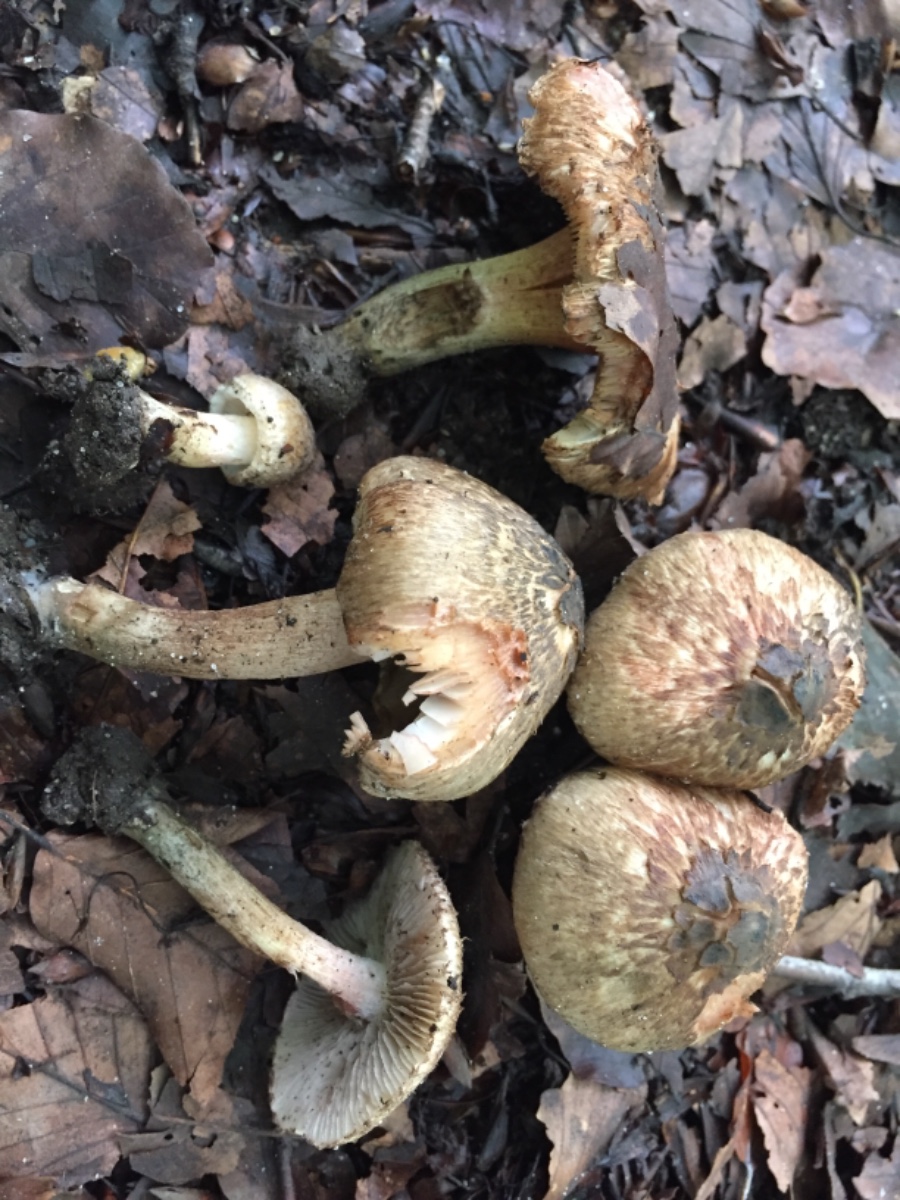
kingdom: Fungi
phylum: Basidiomycota
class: Agaricomycetes
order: Agaricales
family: Inocybaceae
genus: Inocybe
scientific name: Inocybe haemacta
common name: blågrøn trævlhat
